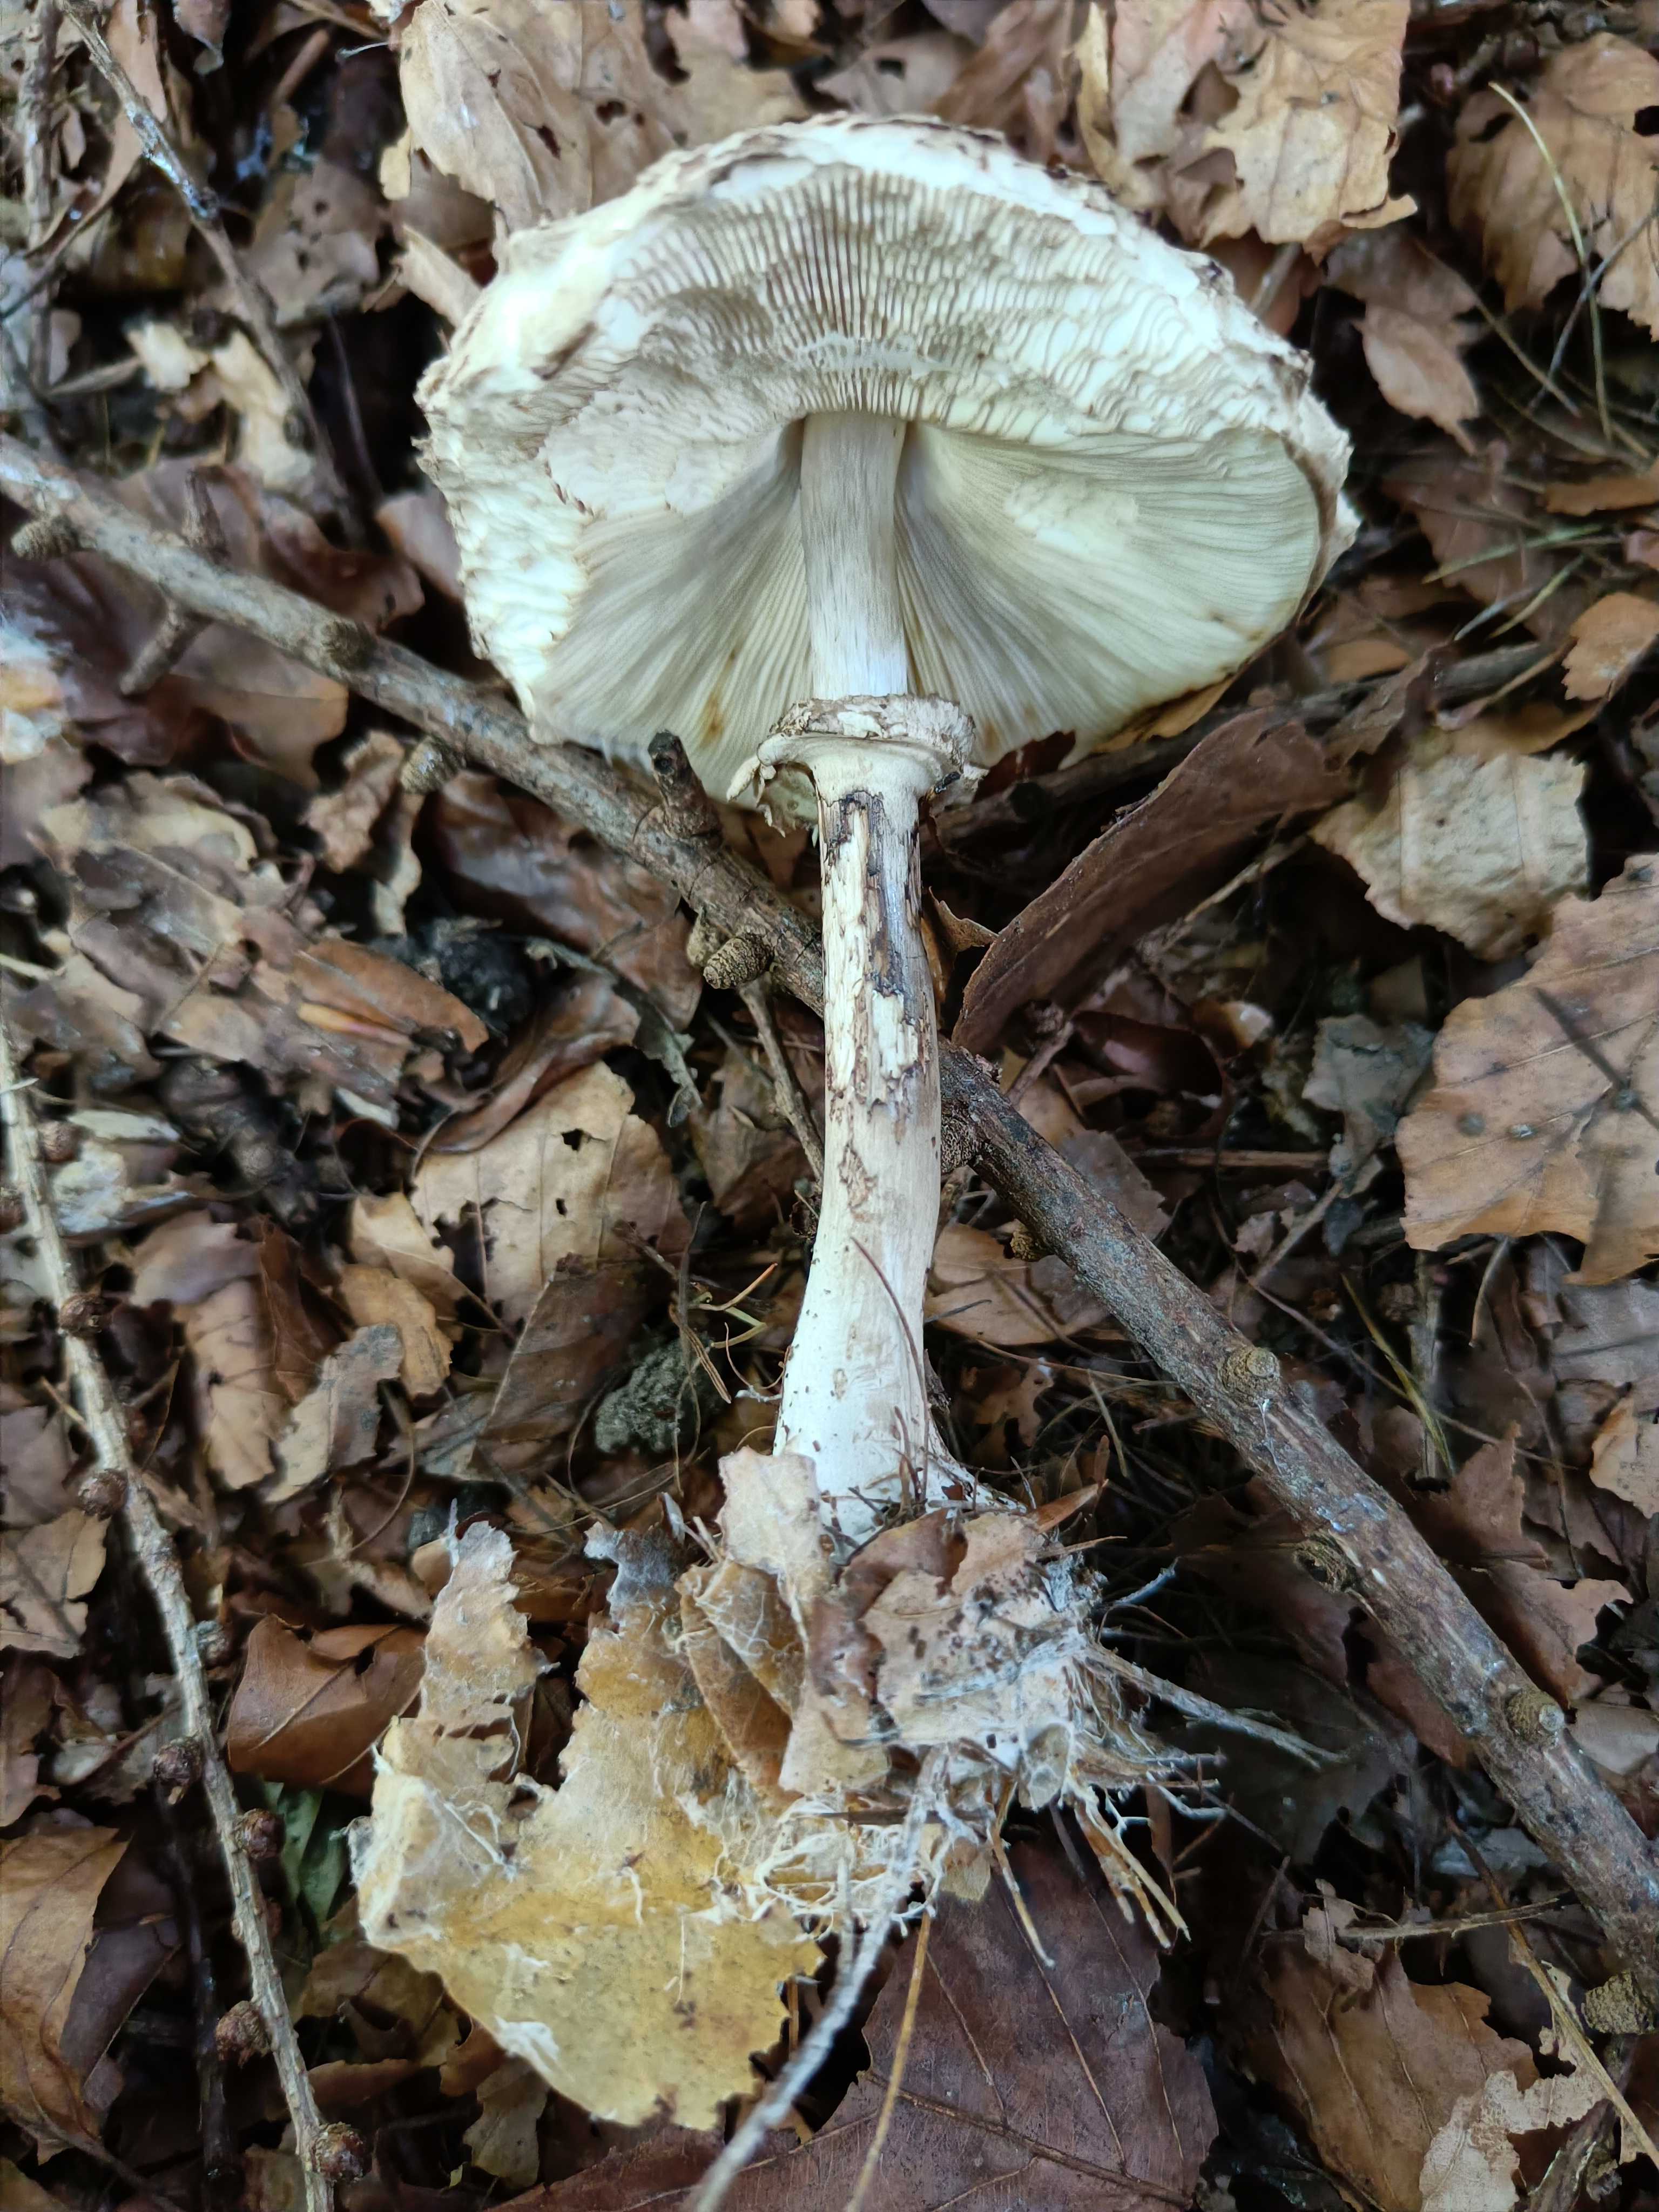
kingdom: Fungi
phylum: Basidiomycota
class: Agaricomycetes
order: Agaricales
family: Agaricaceae
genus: Chlorophyllum
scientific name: Chlorophyllum
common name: rabarberhat
